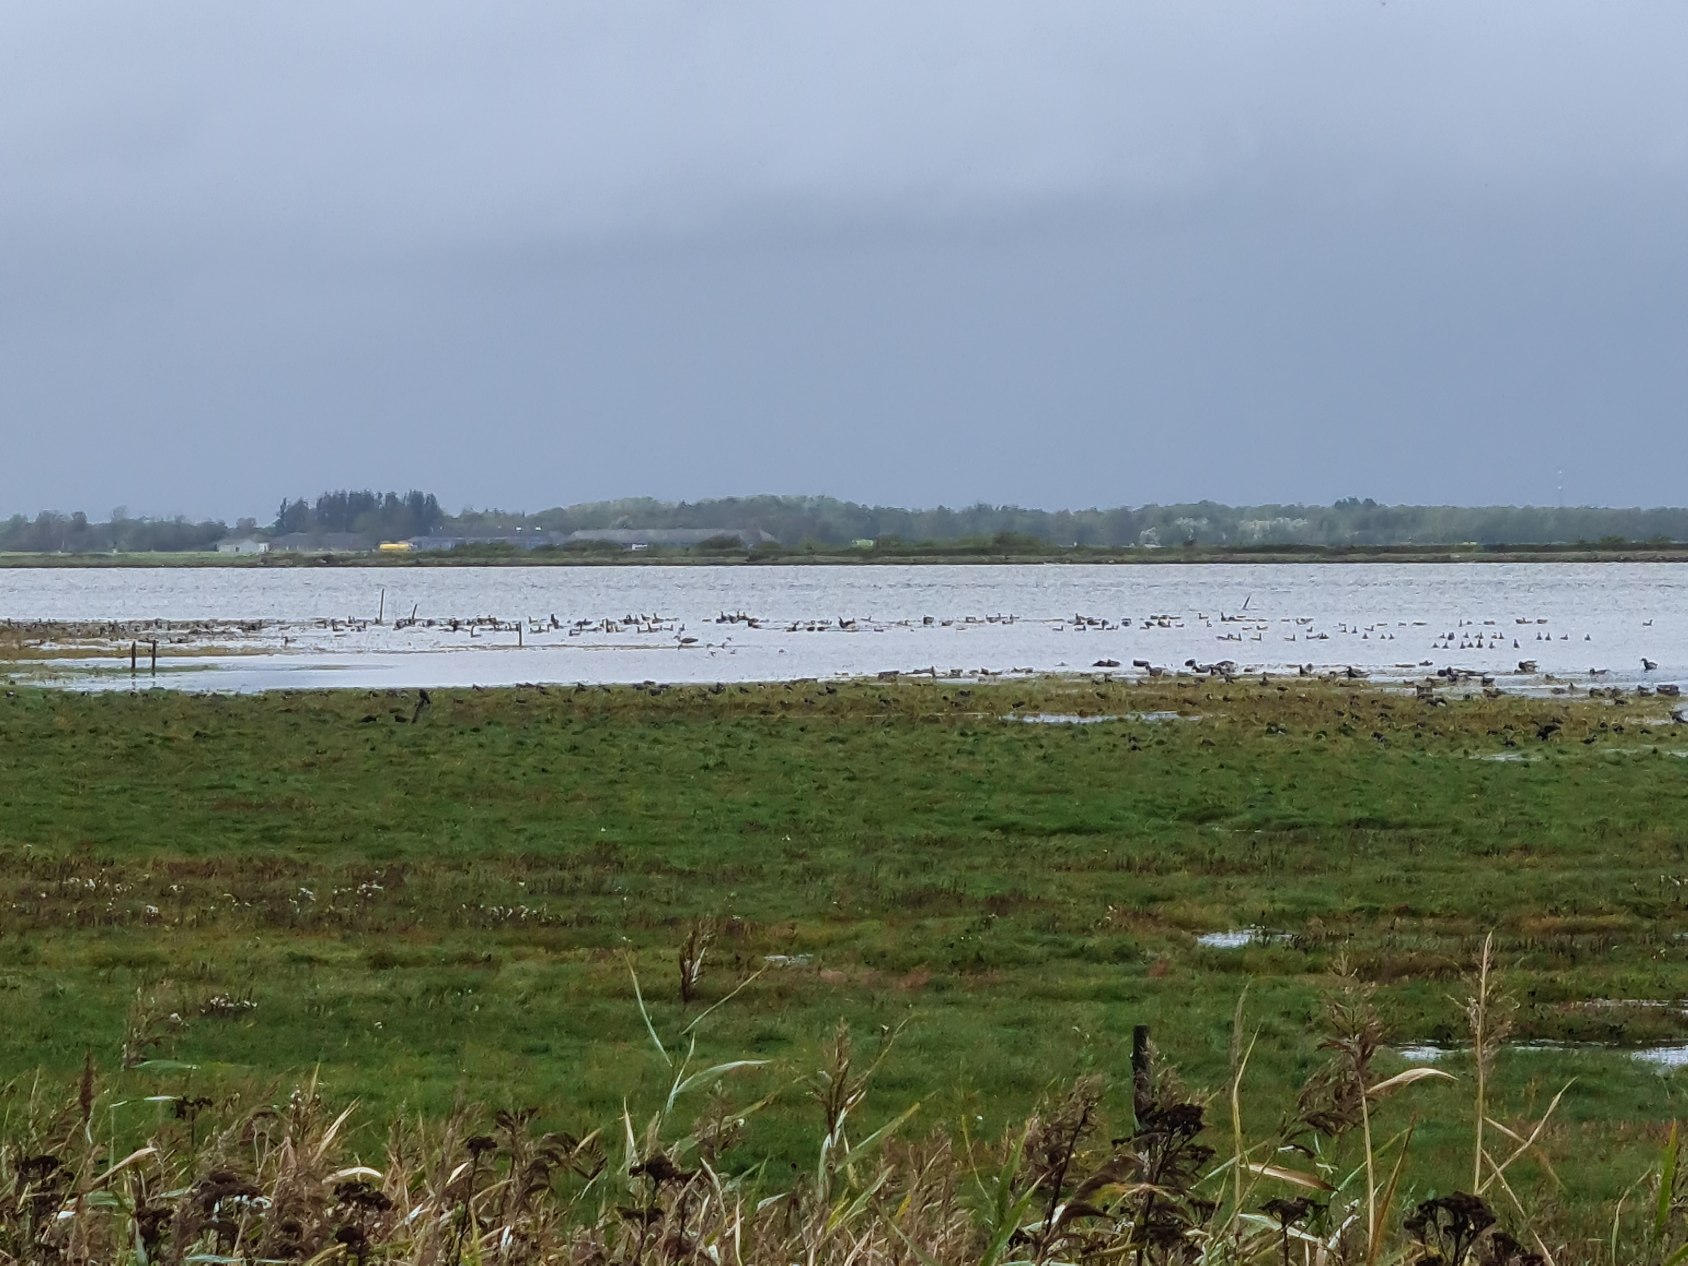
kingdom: Animalia
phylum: Chordata
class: Aves
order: Anseriformes
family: Anatidae
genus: Branta
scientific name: Branta bernicla
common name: Lysbuget knortegås
